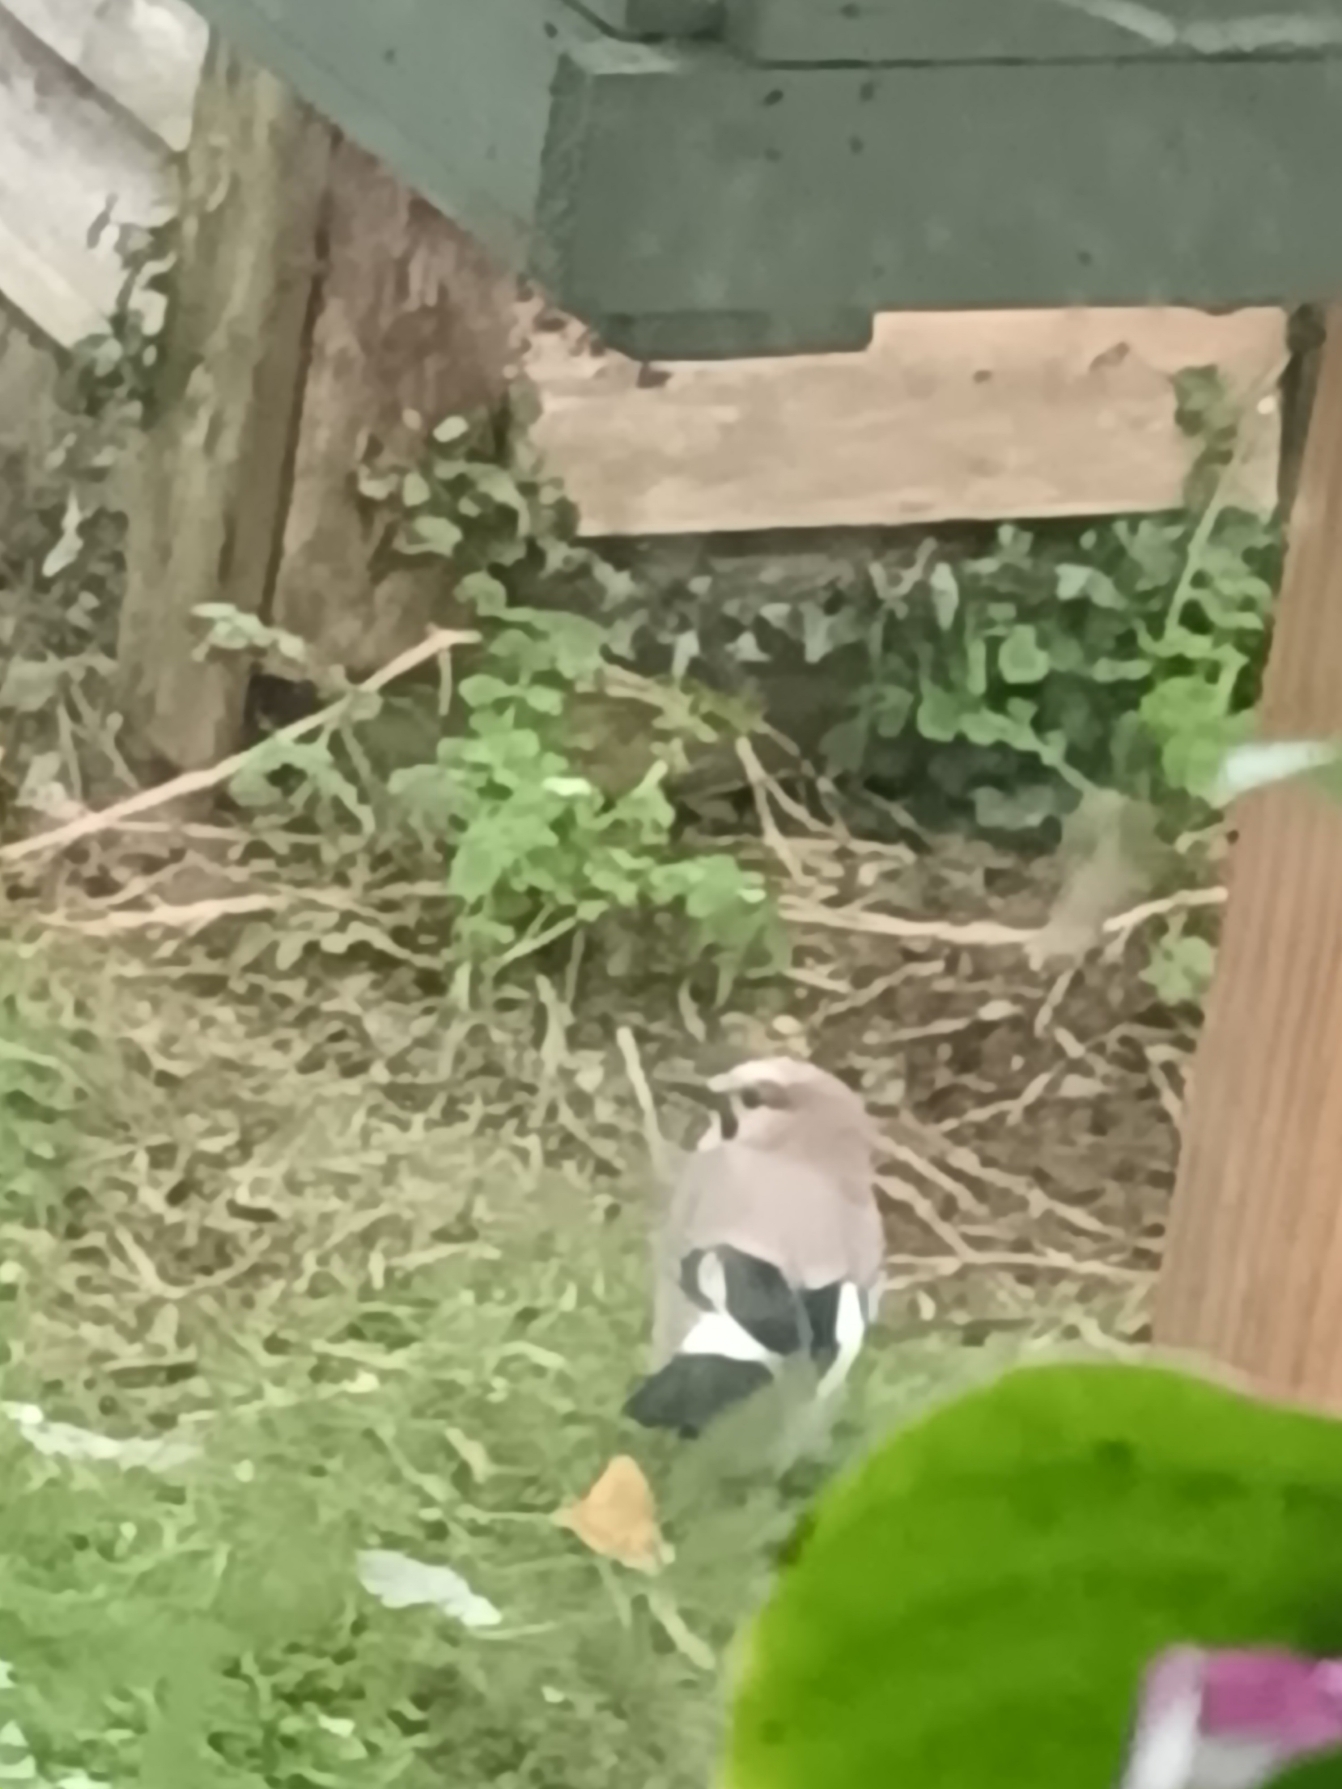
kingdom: Animalia
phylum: Chordata
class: Aves
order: Passeriformes
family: Corvidae
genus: Garrulus
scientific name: Garrulus glandarius
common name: Skovskade
